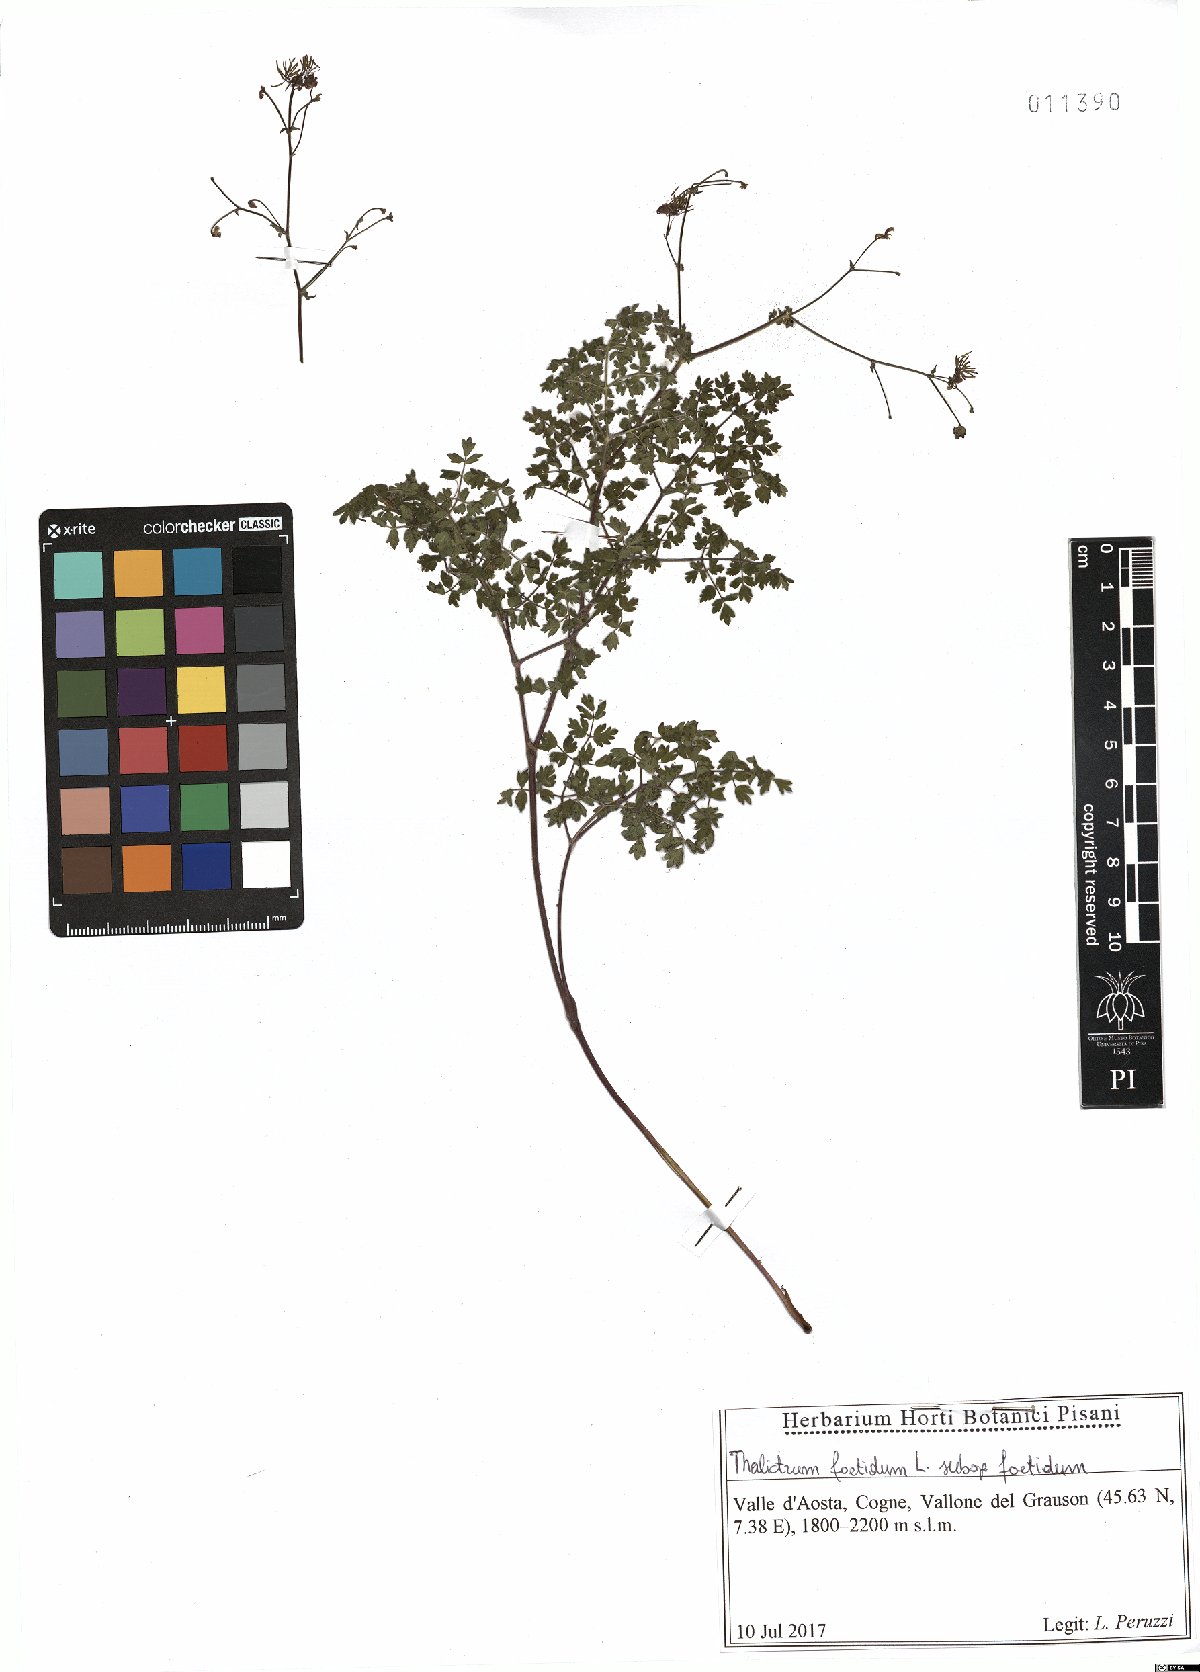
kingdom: Plantae
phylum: Tracheophyta
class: Magnoliopsida
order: Ranunculales
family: Ranunculaceae
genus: Thalictrum
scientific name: Thalictrum foetidum
